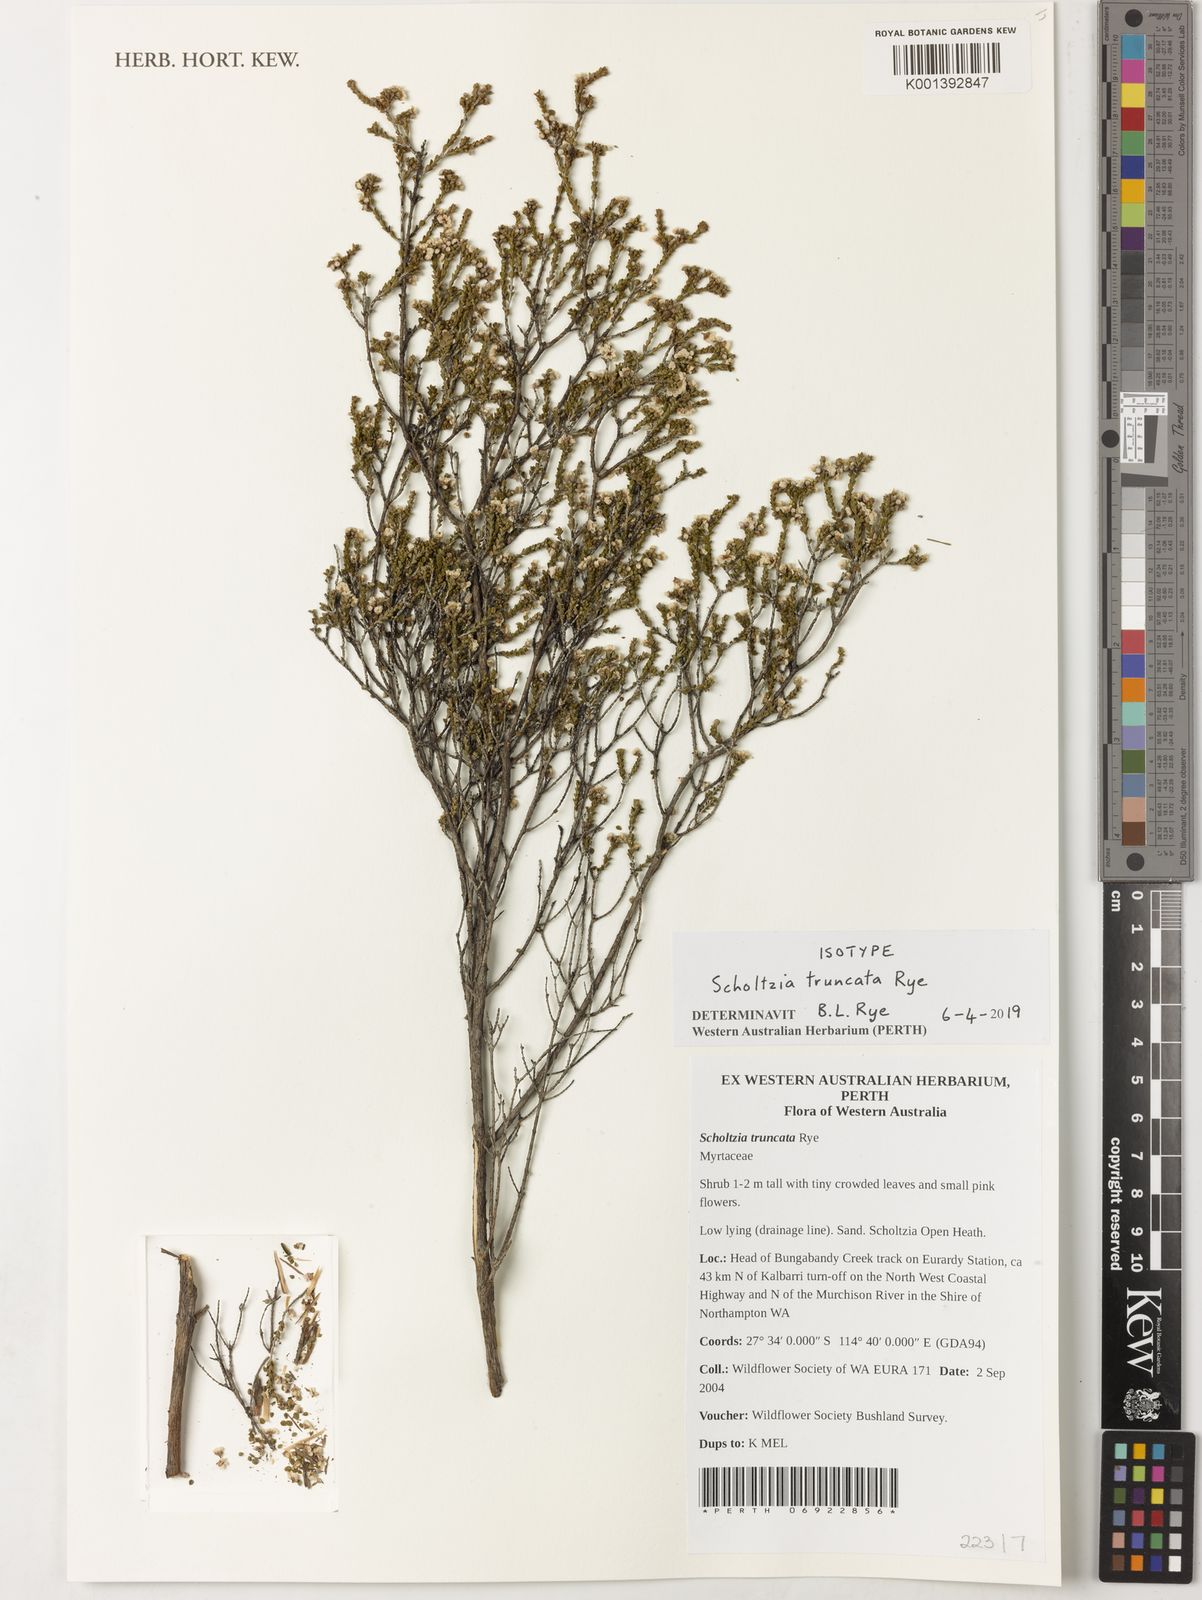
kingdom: Plantae
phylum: Tracheophyta
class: Magnoliopsida
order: Myrtales
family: Myrtaceae
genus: Scholtzia
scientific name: Scholtzia
